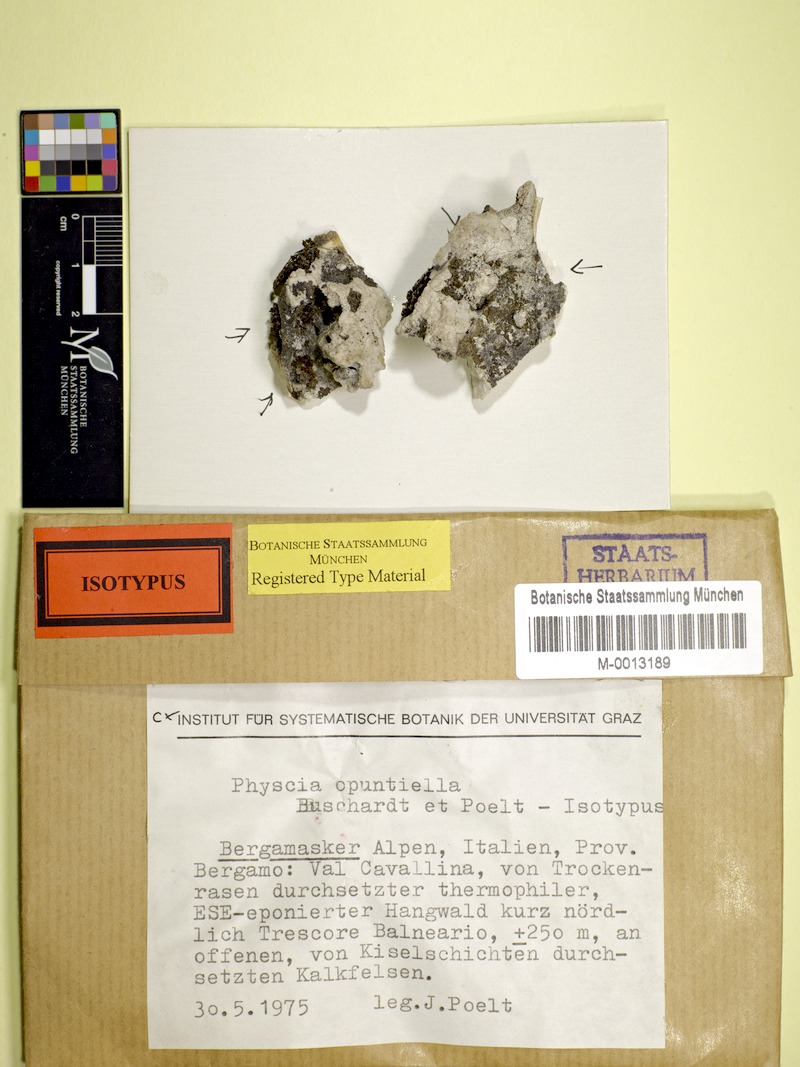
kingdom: Fungi
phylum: Ascomycota
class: Eurotiomycetes
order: Verrucariales
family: Verrucariaceae
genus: Agonimia
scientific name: Agonimia opuntiella
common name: Cactus lichen
